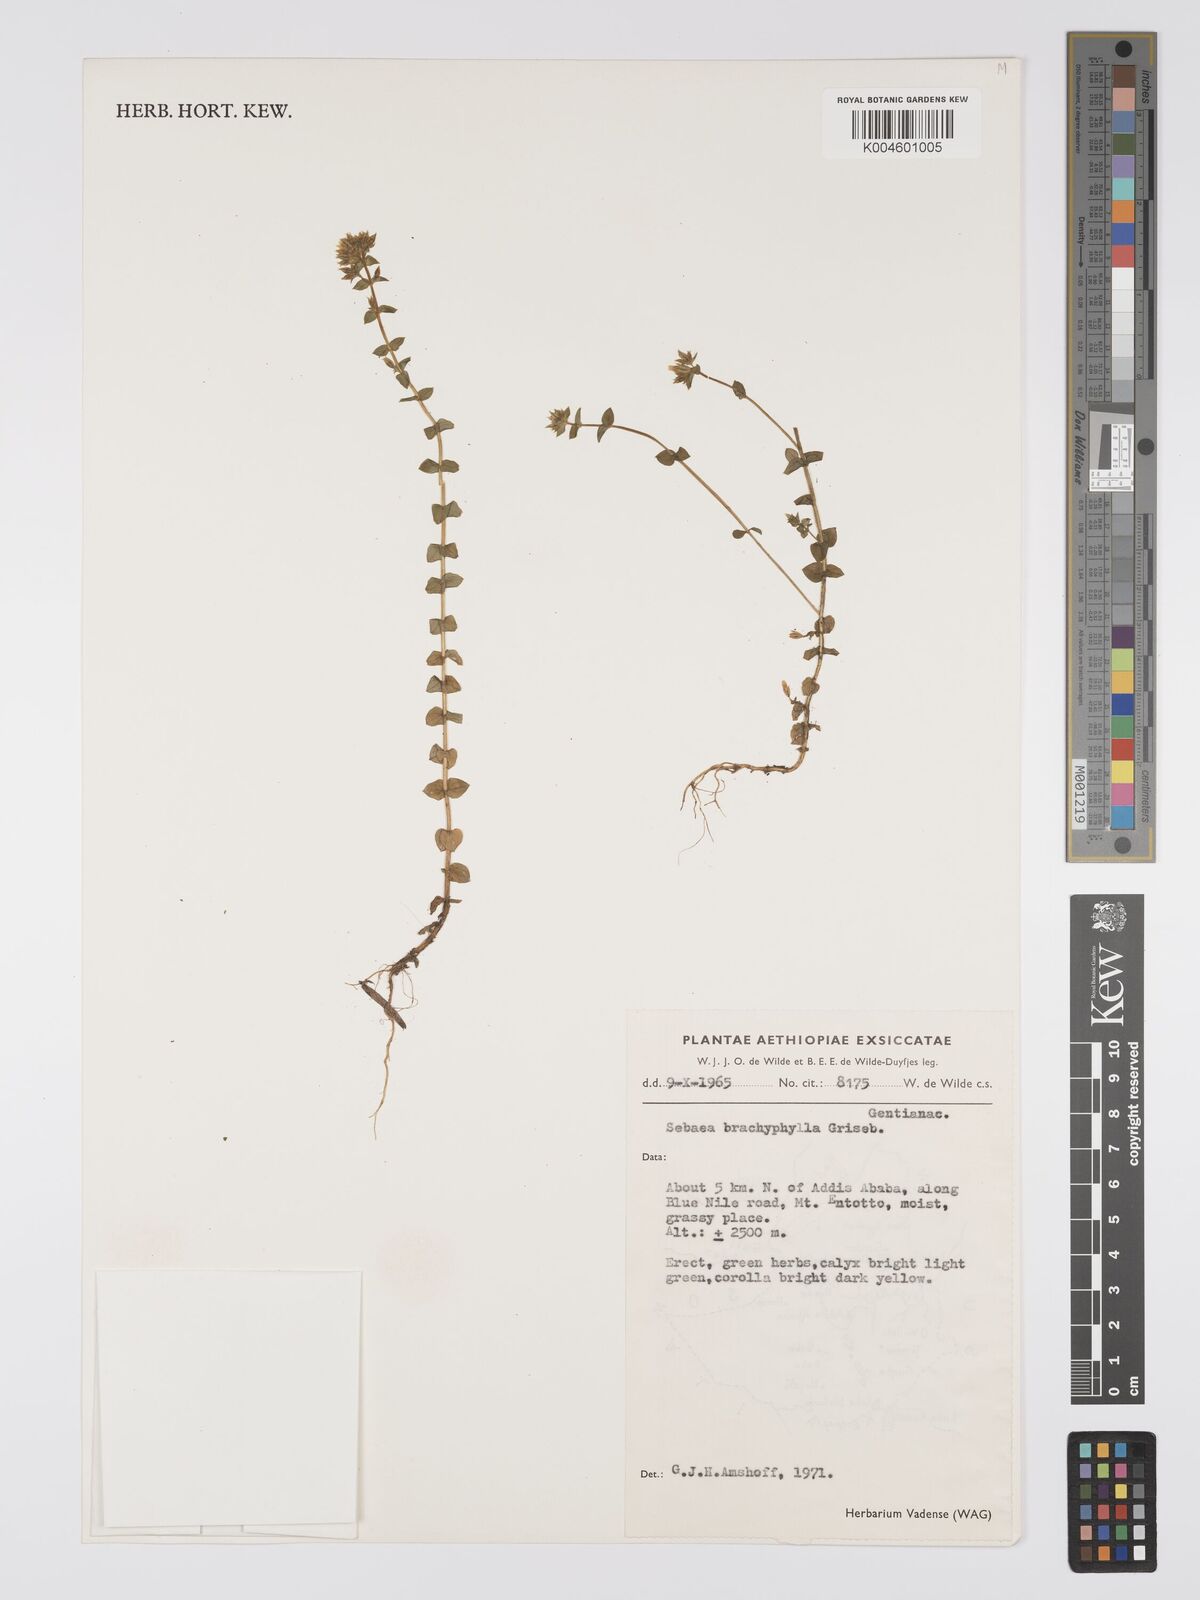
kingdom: Plantae
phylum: Tracheophyta
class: Magnoliopsida
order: Gentianales
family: Gentianaceae
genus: Sebaea
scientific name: Sebaea brachyphylla
